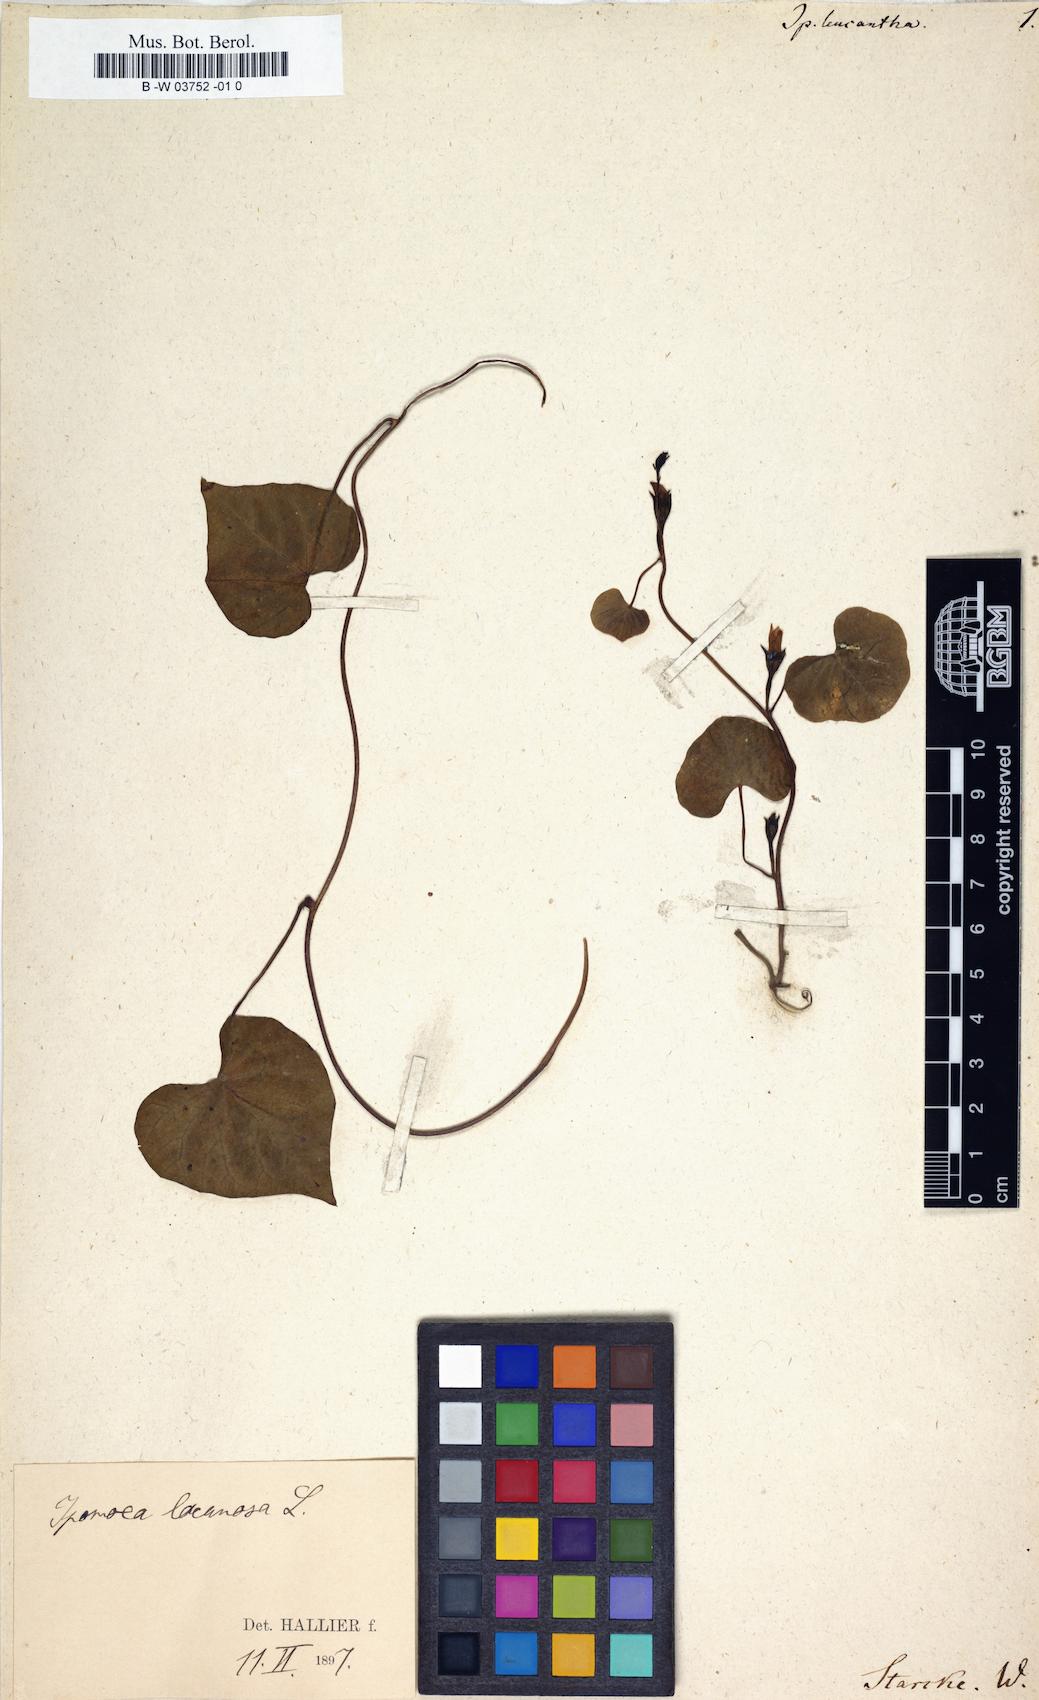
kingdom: Plantae
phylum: Tracheophyta
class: Magnoliopsida
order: Solanales
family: Convolvulaceae
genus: Ipomoea
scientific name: Ipomoea leucantha
